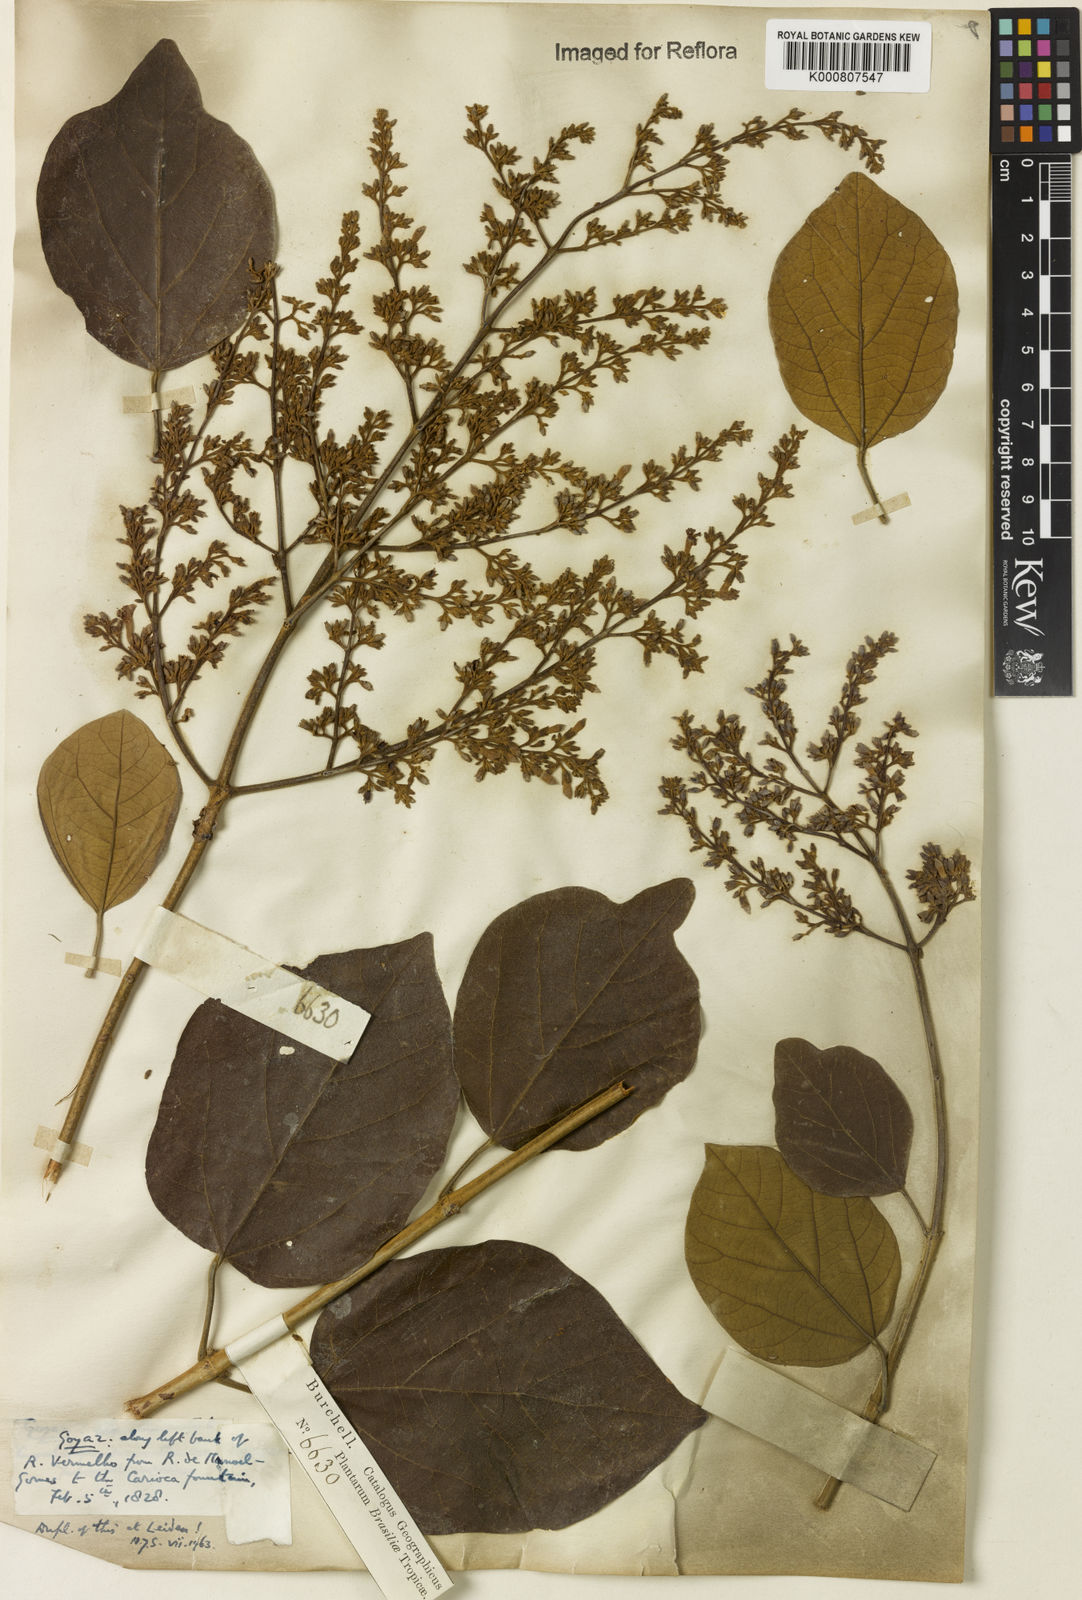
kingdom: Plantae
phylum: Tracheophyta
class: Magnoliopsida
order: Lamiales
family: Bignoniaceae
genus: Xylophragma
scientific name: Xylophragma platyphyllum
